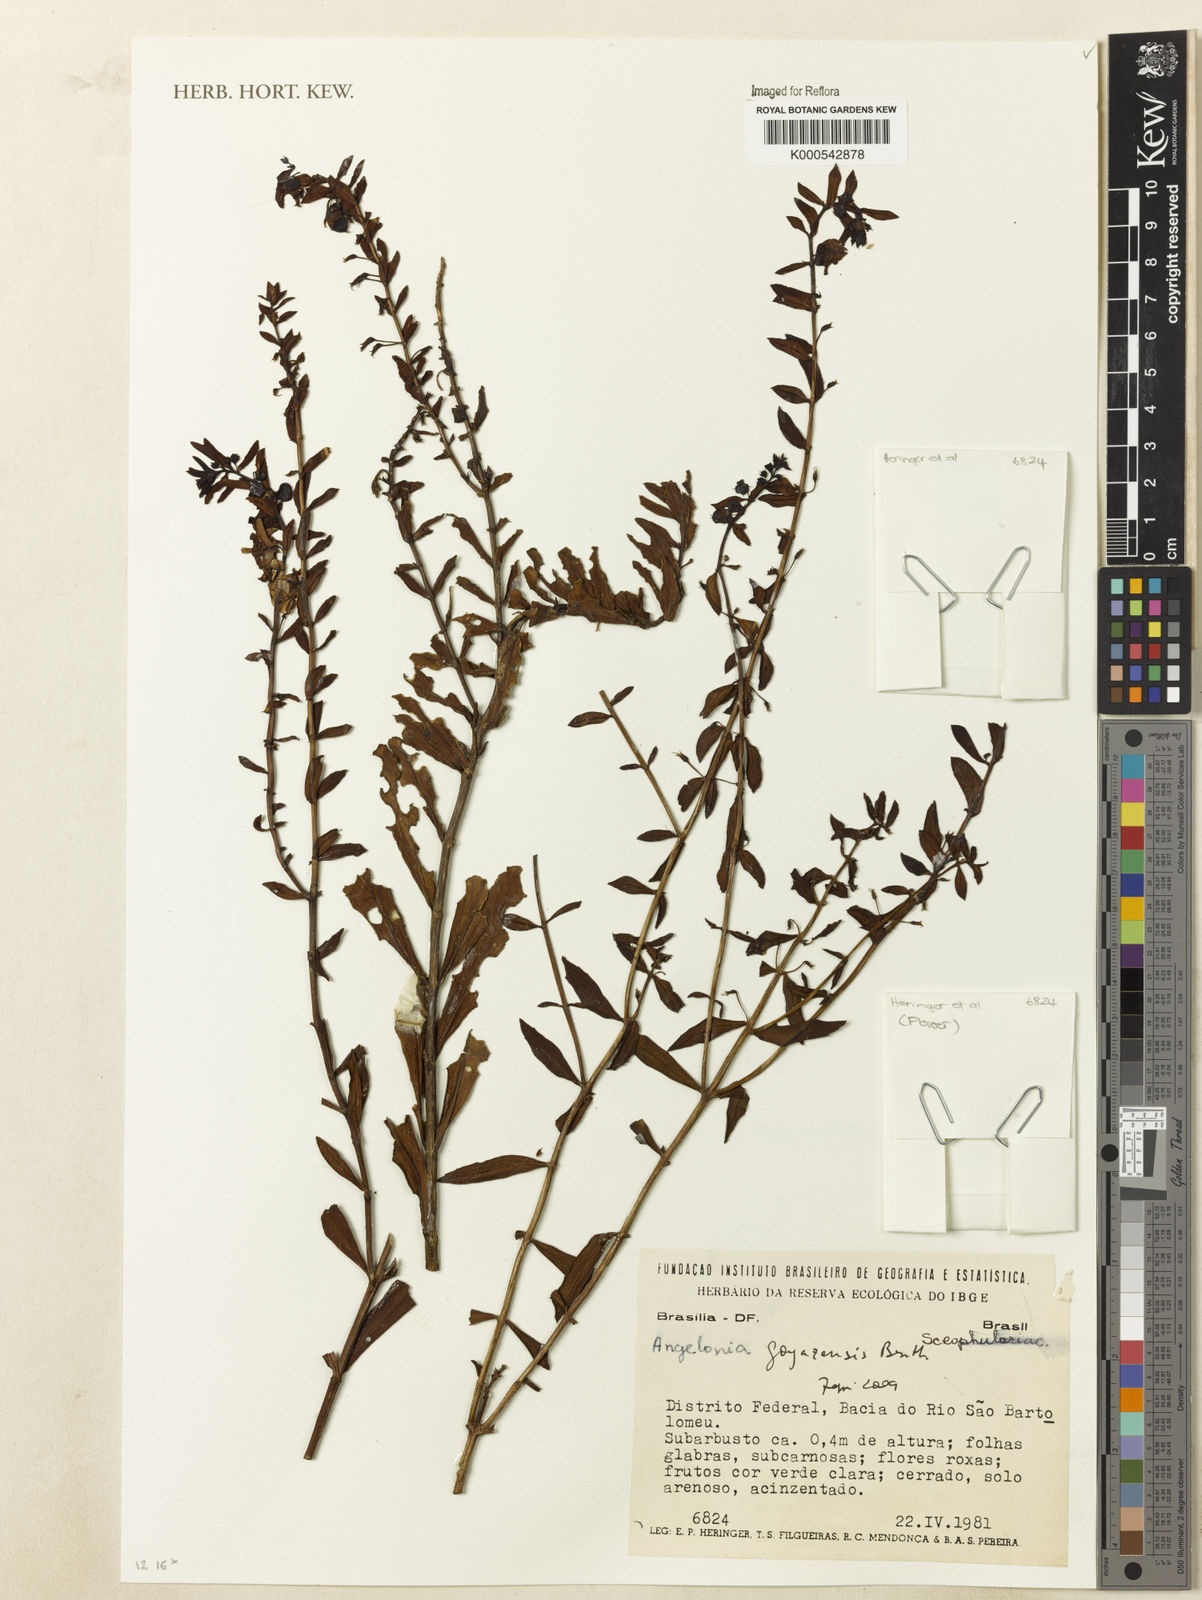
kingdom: Plantae
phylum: Tracheophyta
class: Magnoliopsida
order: Lamiales
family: Plantaginaceae
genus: Angelonia
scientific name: Angelonia goyazensis
